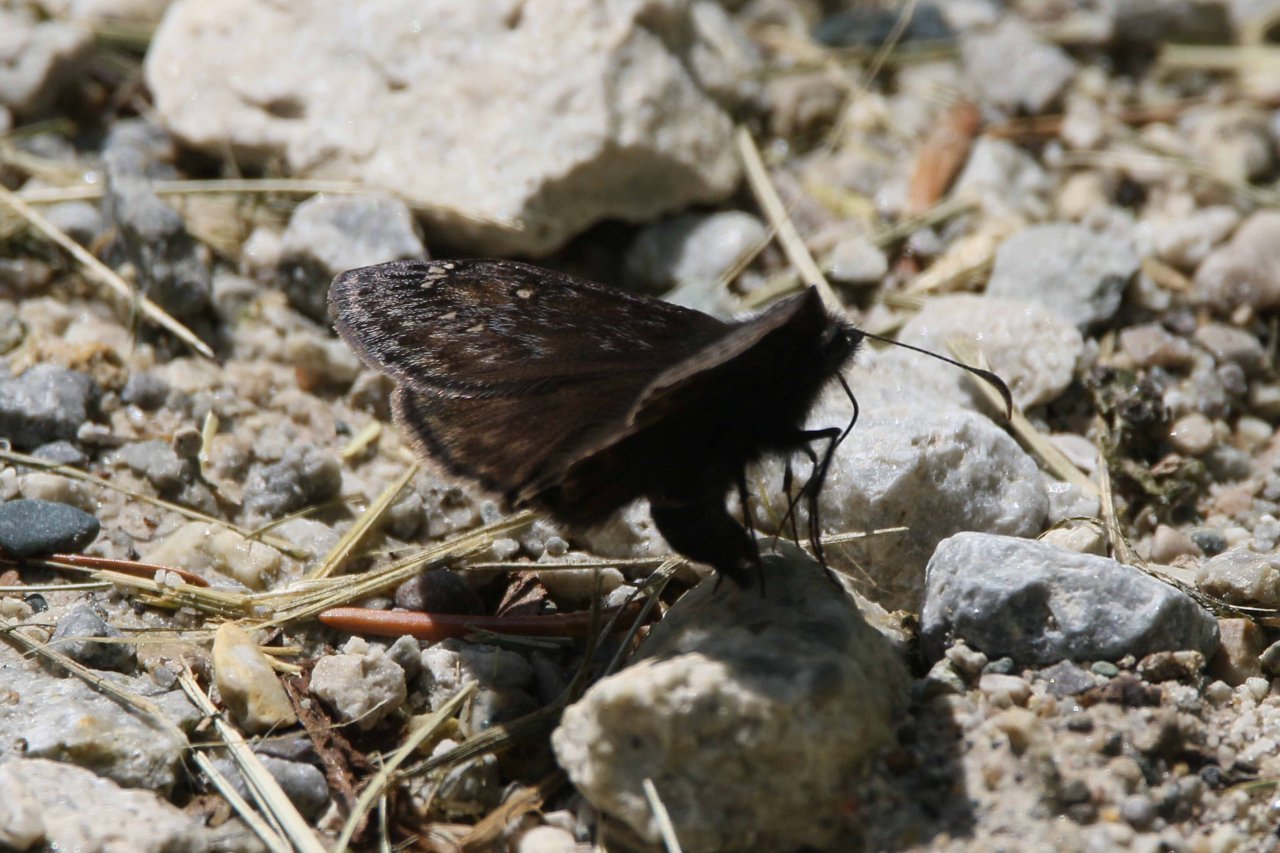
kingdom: Animalia
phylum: Arthropoda
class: Insecta
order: Lepidoptera
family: Hesperiidae
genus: Gesta
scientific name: Gesta
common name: Juvenal's Duskywing
